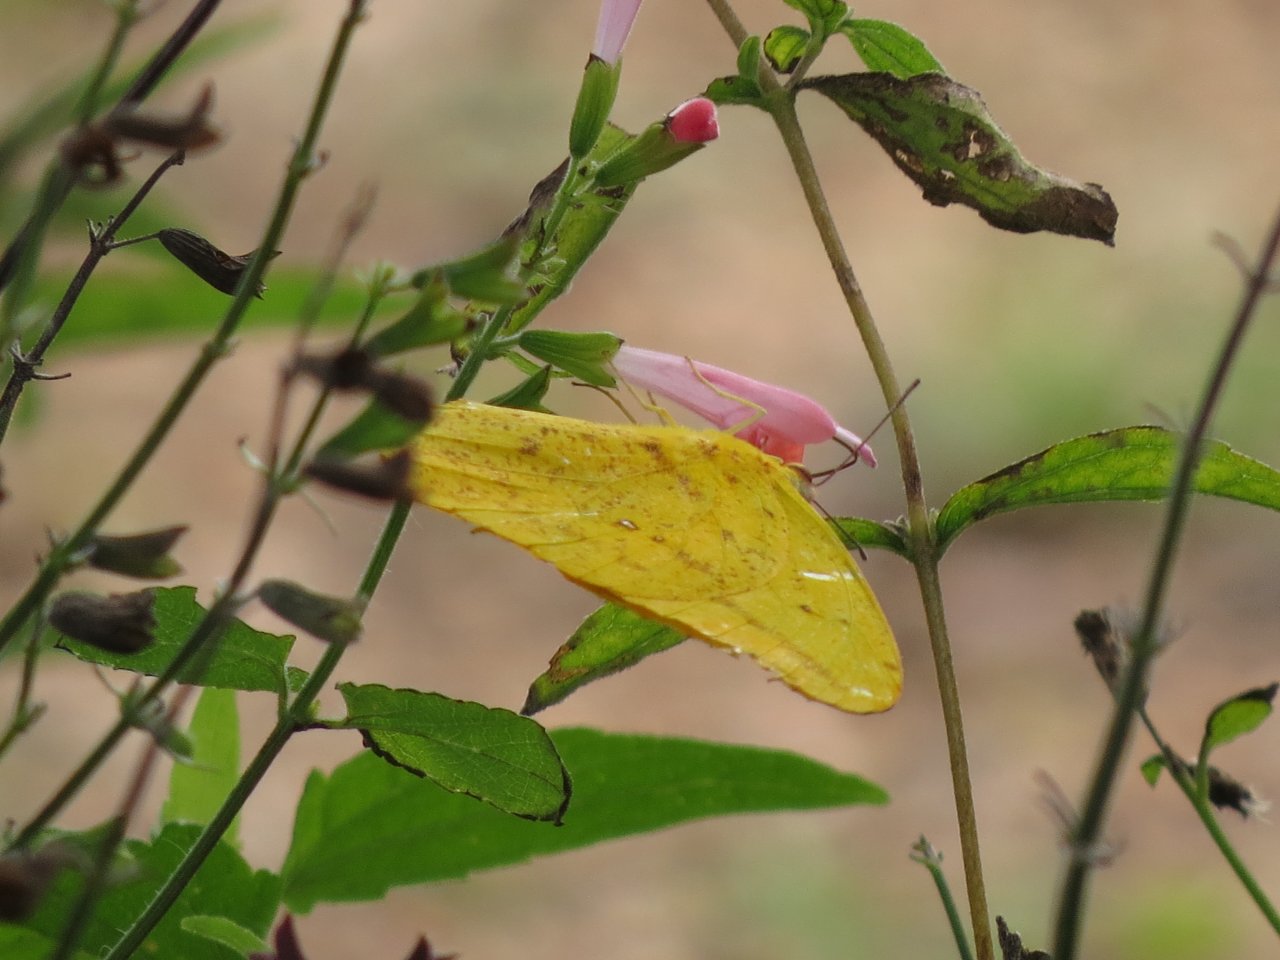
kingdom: Animalia
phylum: Arthropoda
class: Insecta
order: Lepidoptera
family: Pieridae
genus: Phoebis
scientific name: Phoebis agarithe
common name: Large Orange Sulphur
